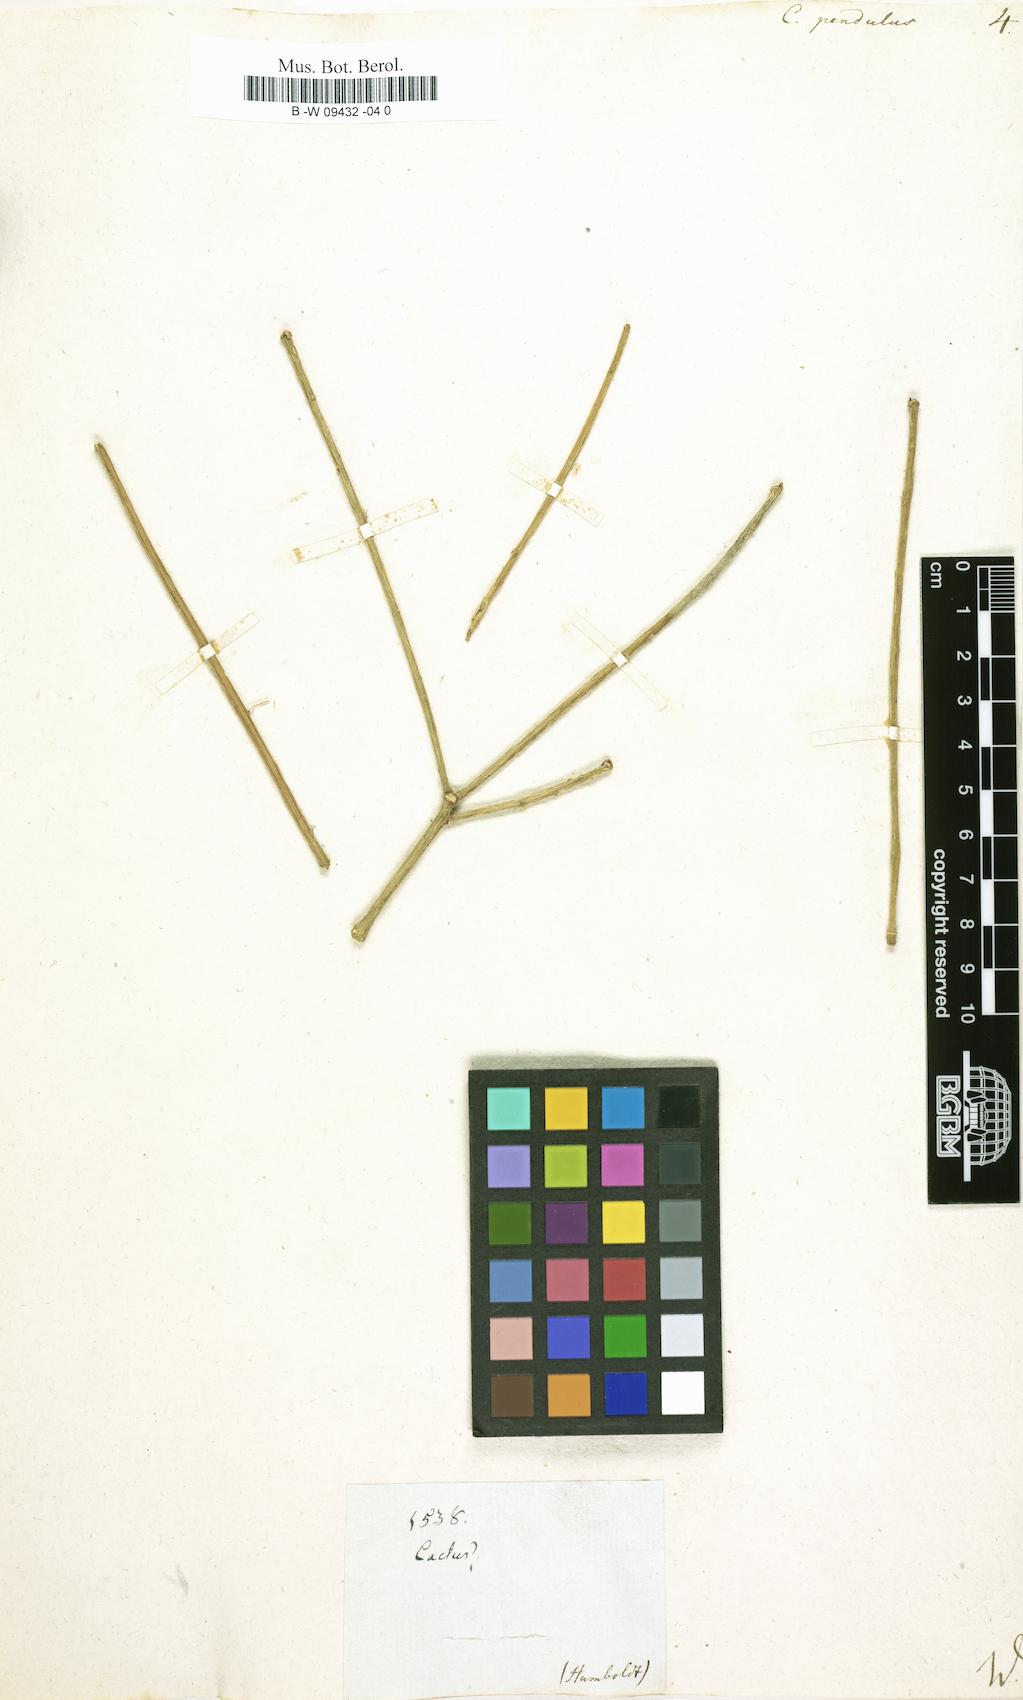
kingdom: Plantae
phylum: Tracheophyta
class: Magnoliopsida
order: Caryophyllales
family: Cactaceae
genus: Rhipsalis
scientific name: Rhipsalis baccifera
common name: Mistletoe cactus
